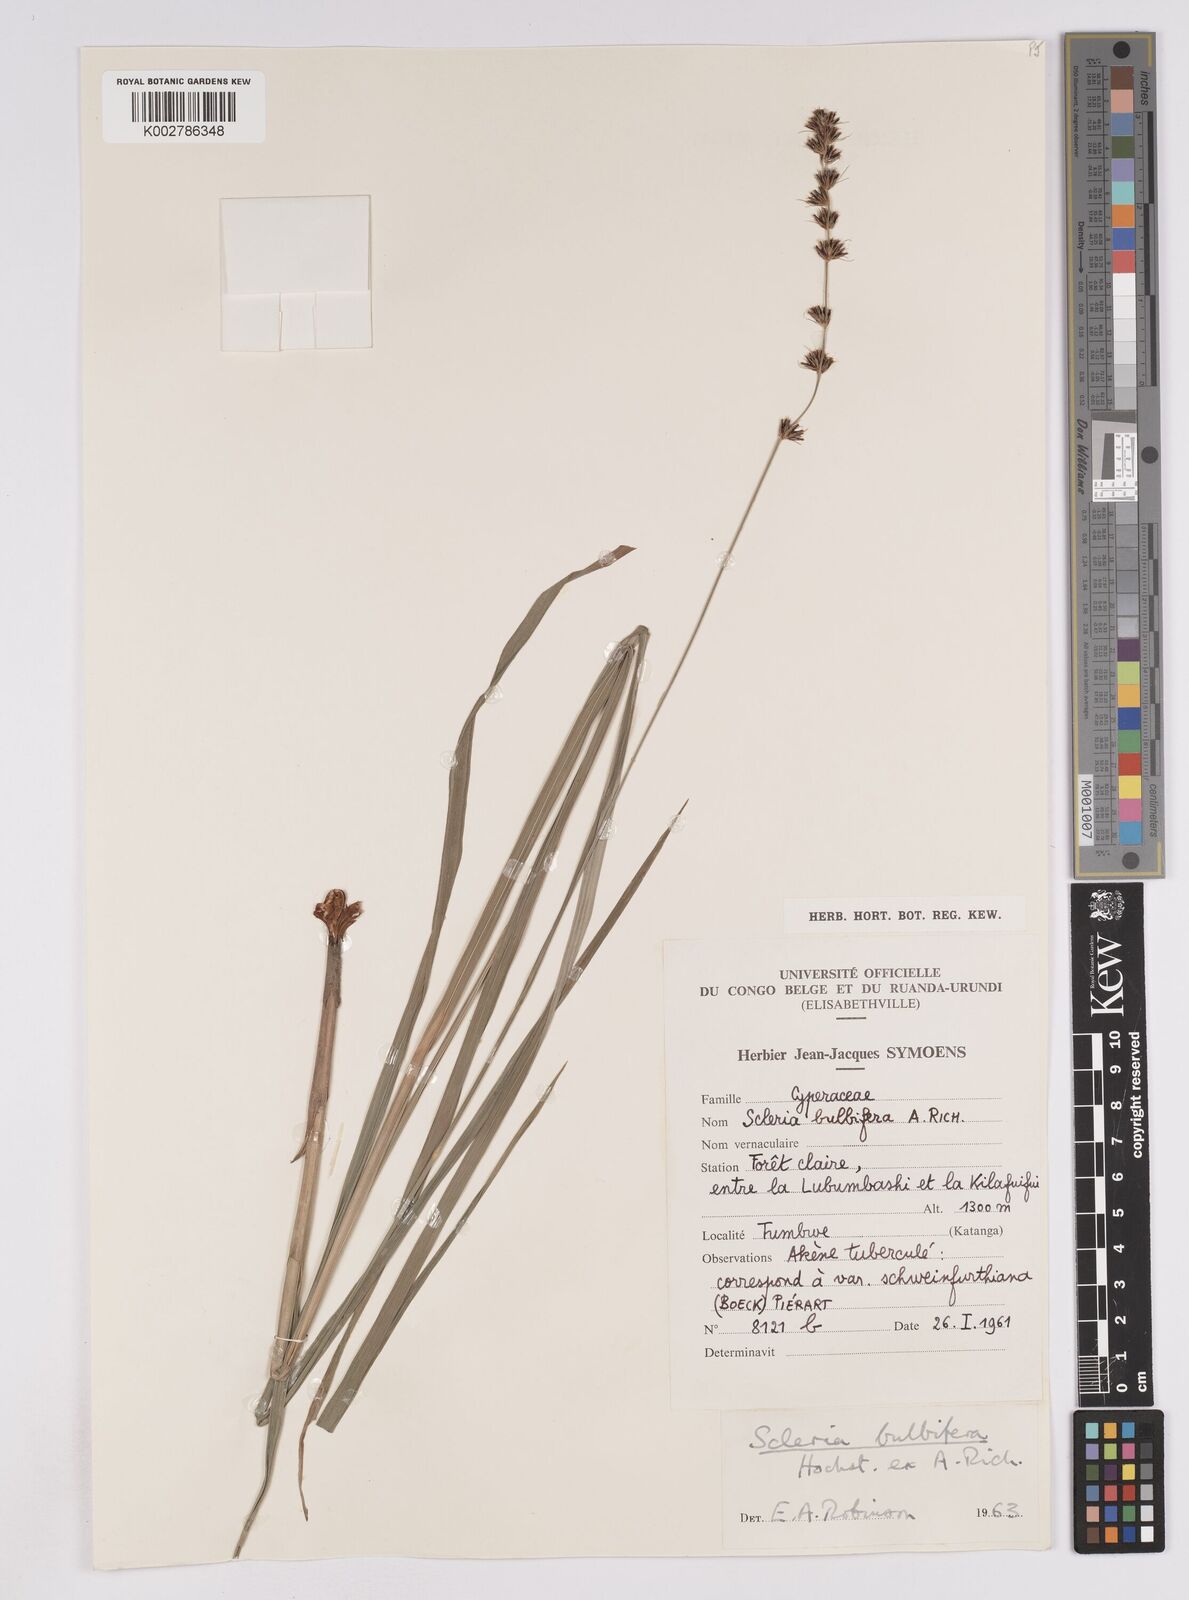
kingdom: Plantae
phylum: Tracheophyta
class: Liliopsida
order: Poales
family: Cyperaceae
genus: Scleria
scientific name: Scleria bulbifera
